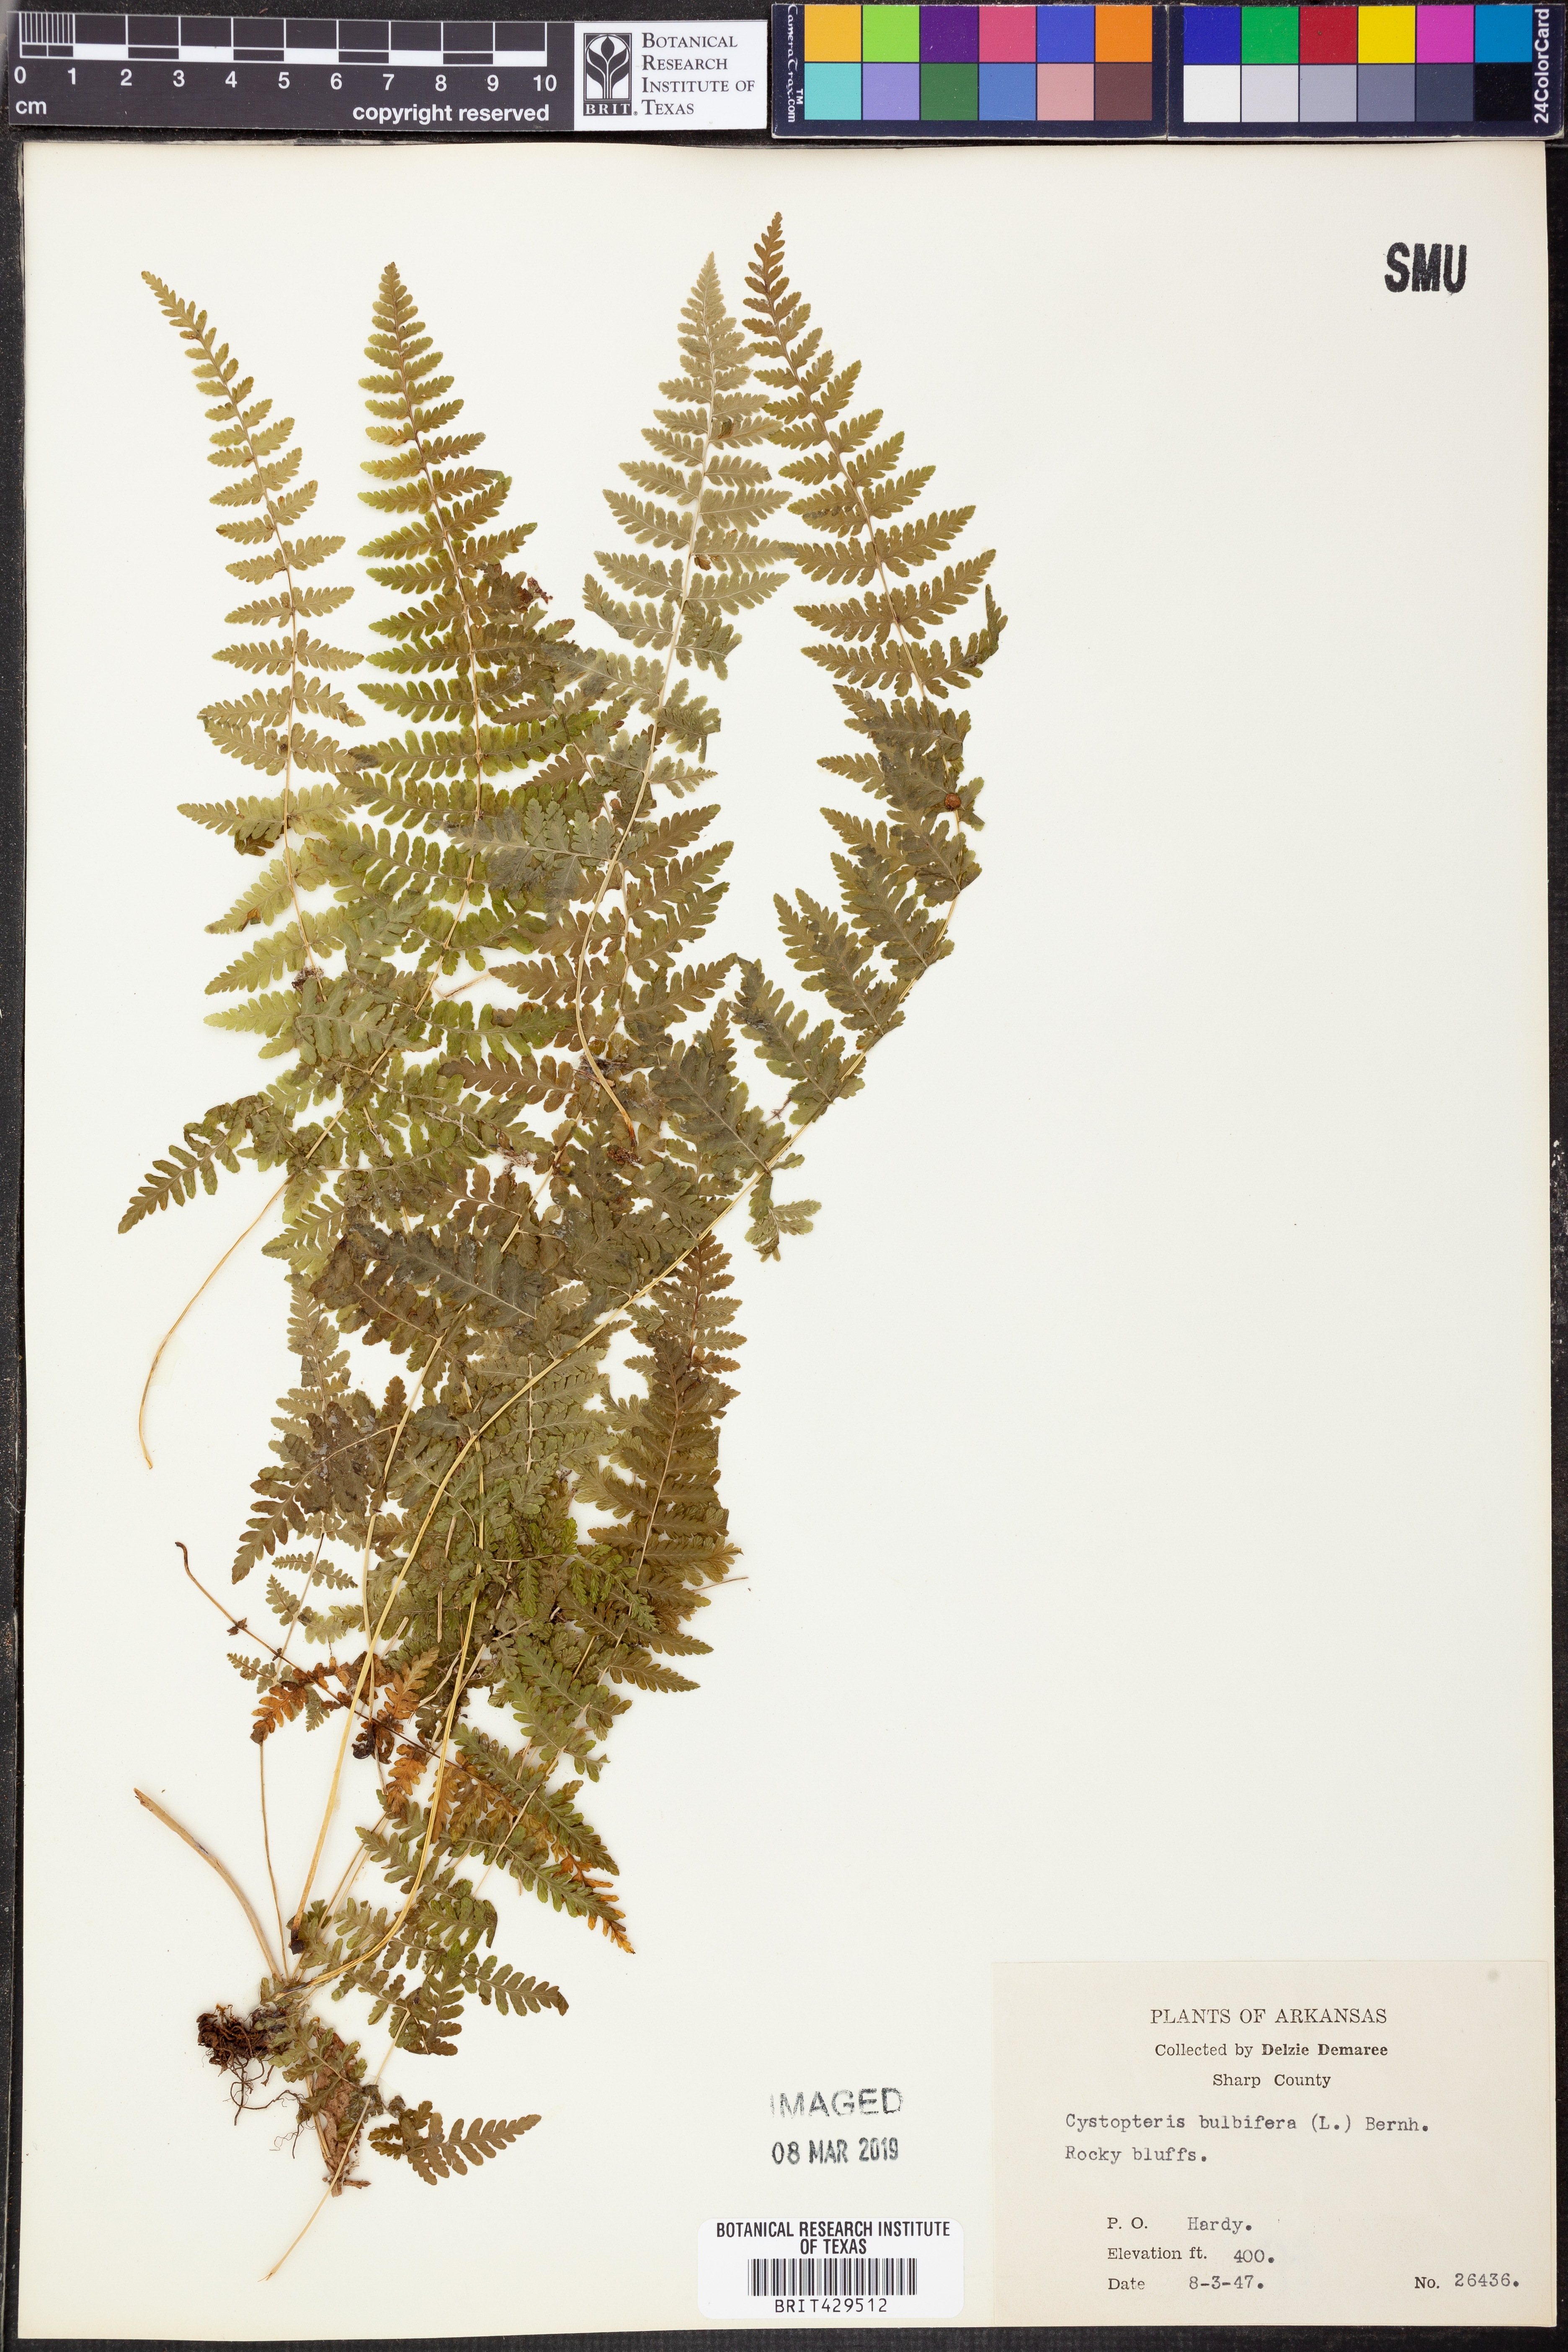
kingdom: Plantae
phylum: Tracheophyta
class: Polypodiopsida
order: Polypodiales
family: Cystopteridaceae
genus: Cystopteris
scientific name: Cystopteris bulbifera
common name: Bulblet bladder fern
